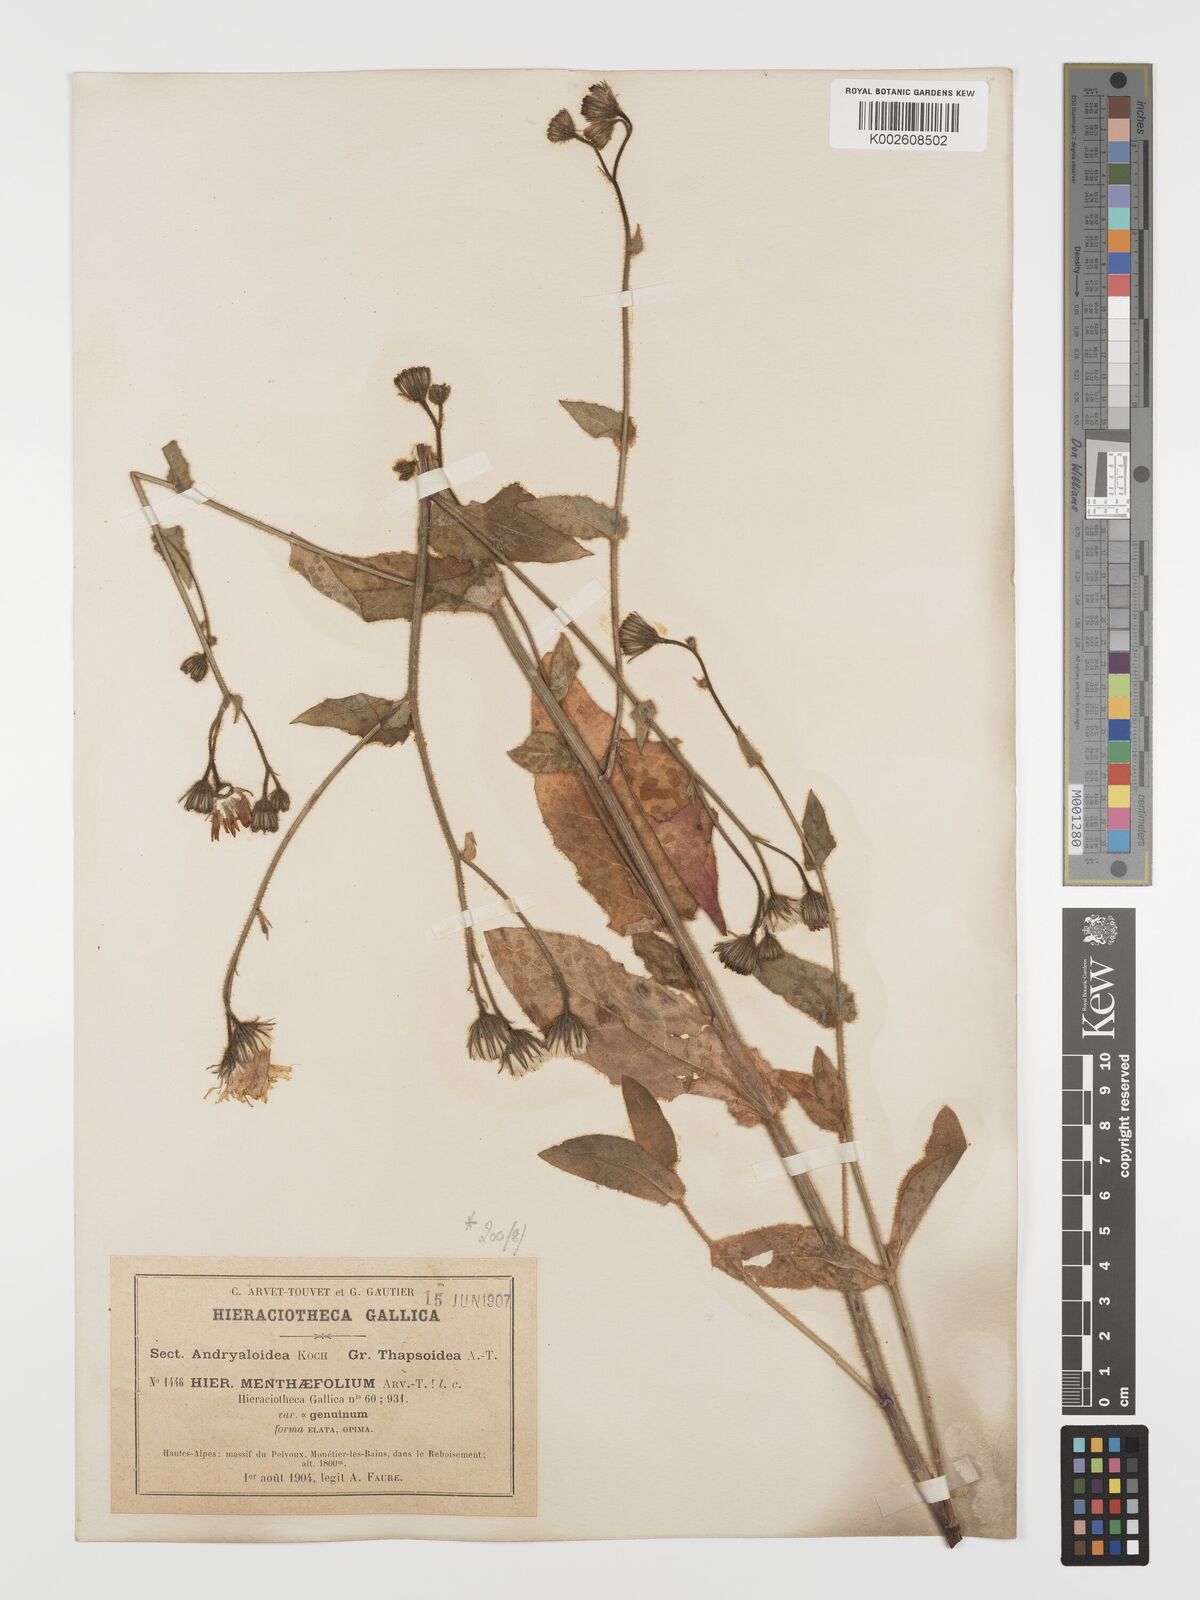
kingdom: Plantae
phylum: Tracheophyta
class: Magnoliopsida
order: Asterales
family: Asteraceae
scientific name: Asteraceae
